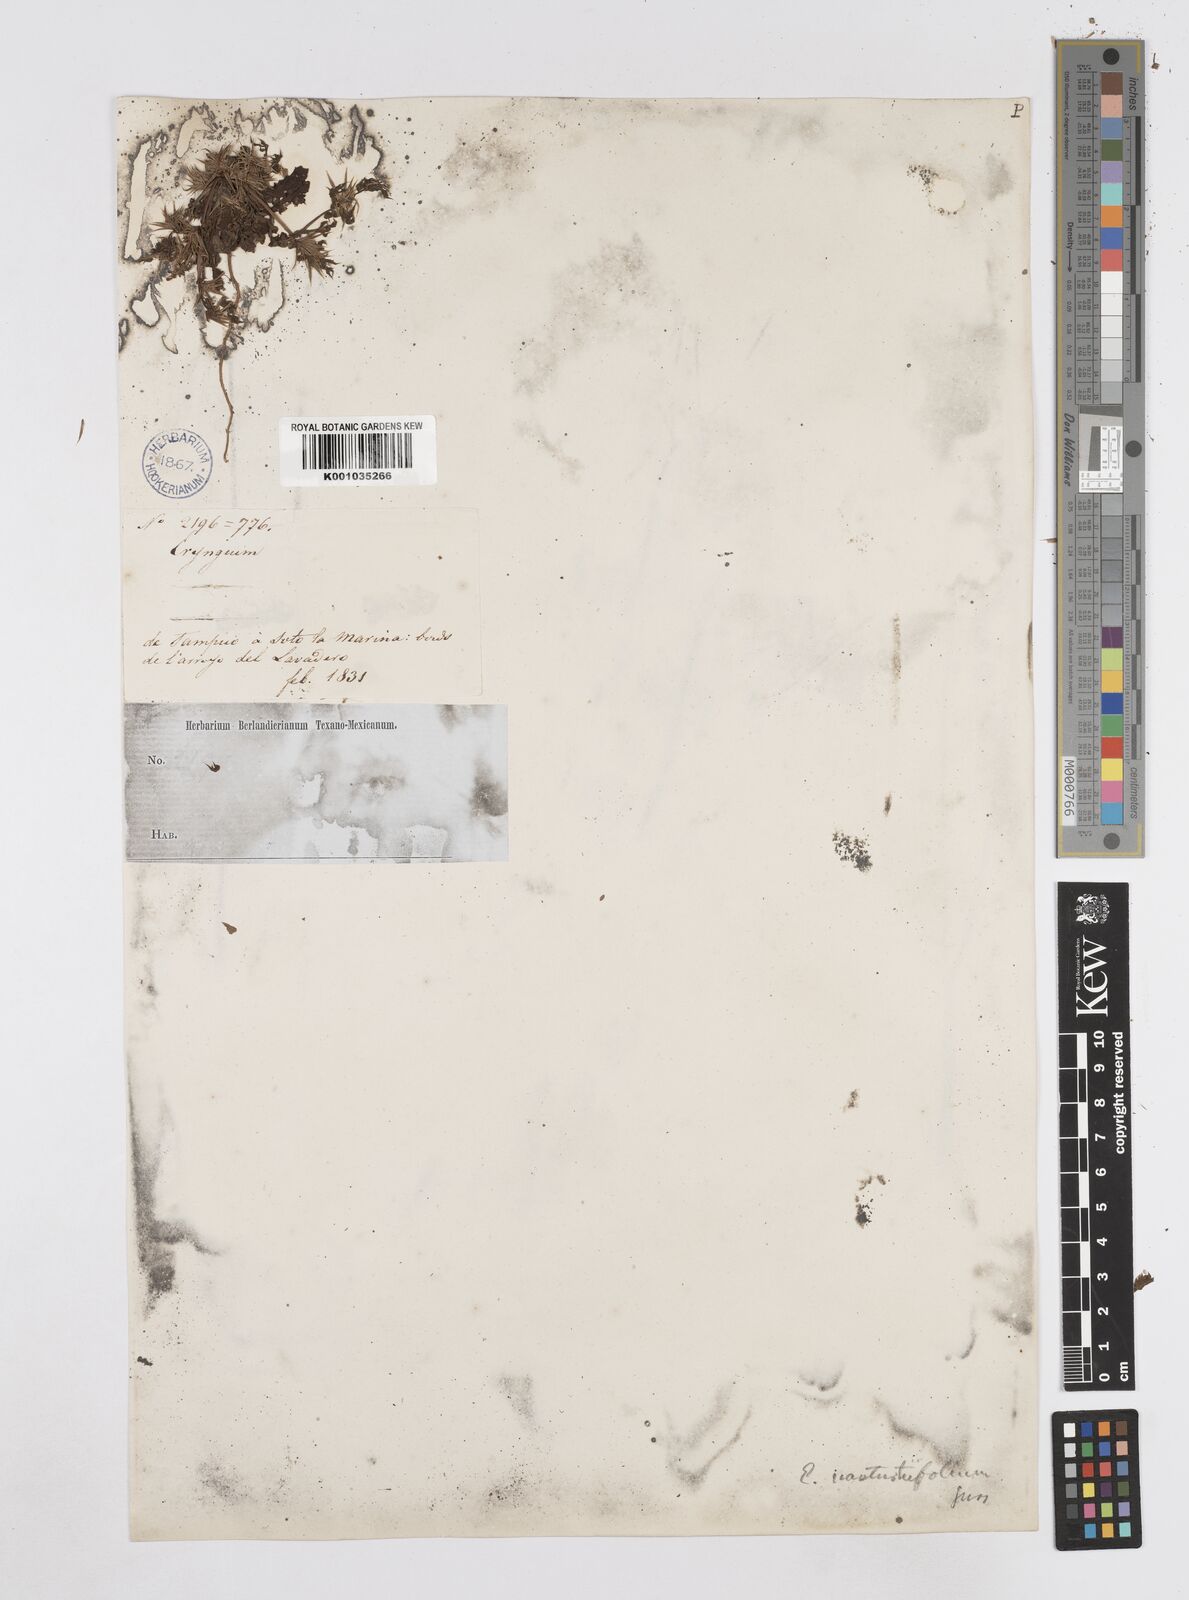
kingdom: Plantae
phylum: Tracheophyta
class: Magnoliopsida
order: Apiales
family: Apiaceae
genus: Eryngium
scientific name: Eryngium nasturtiifolium
